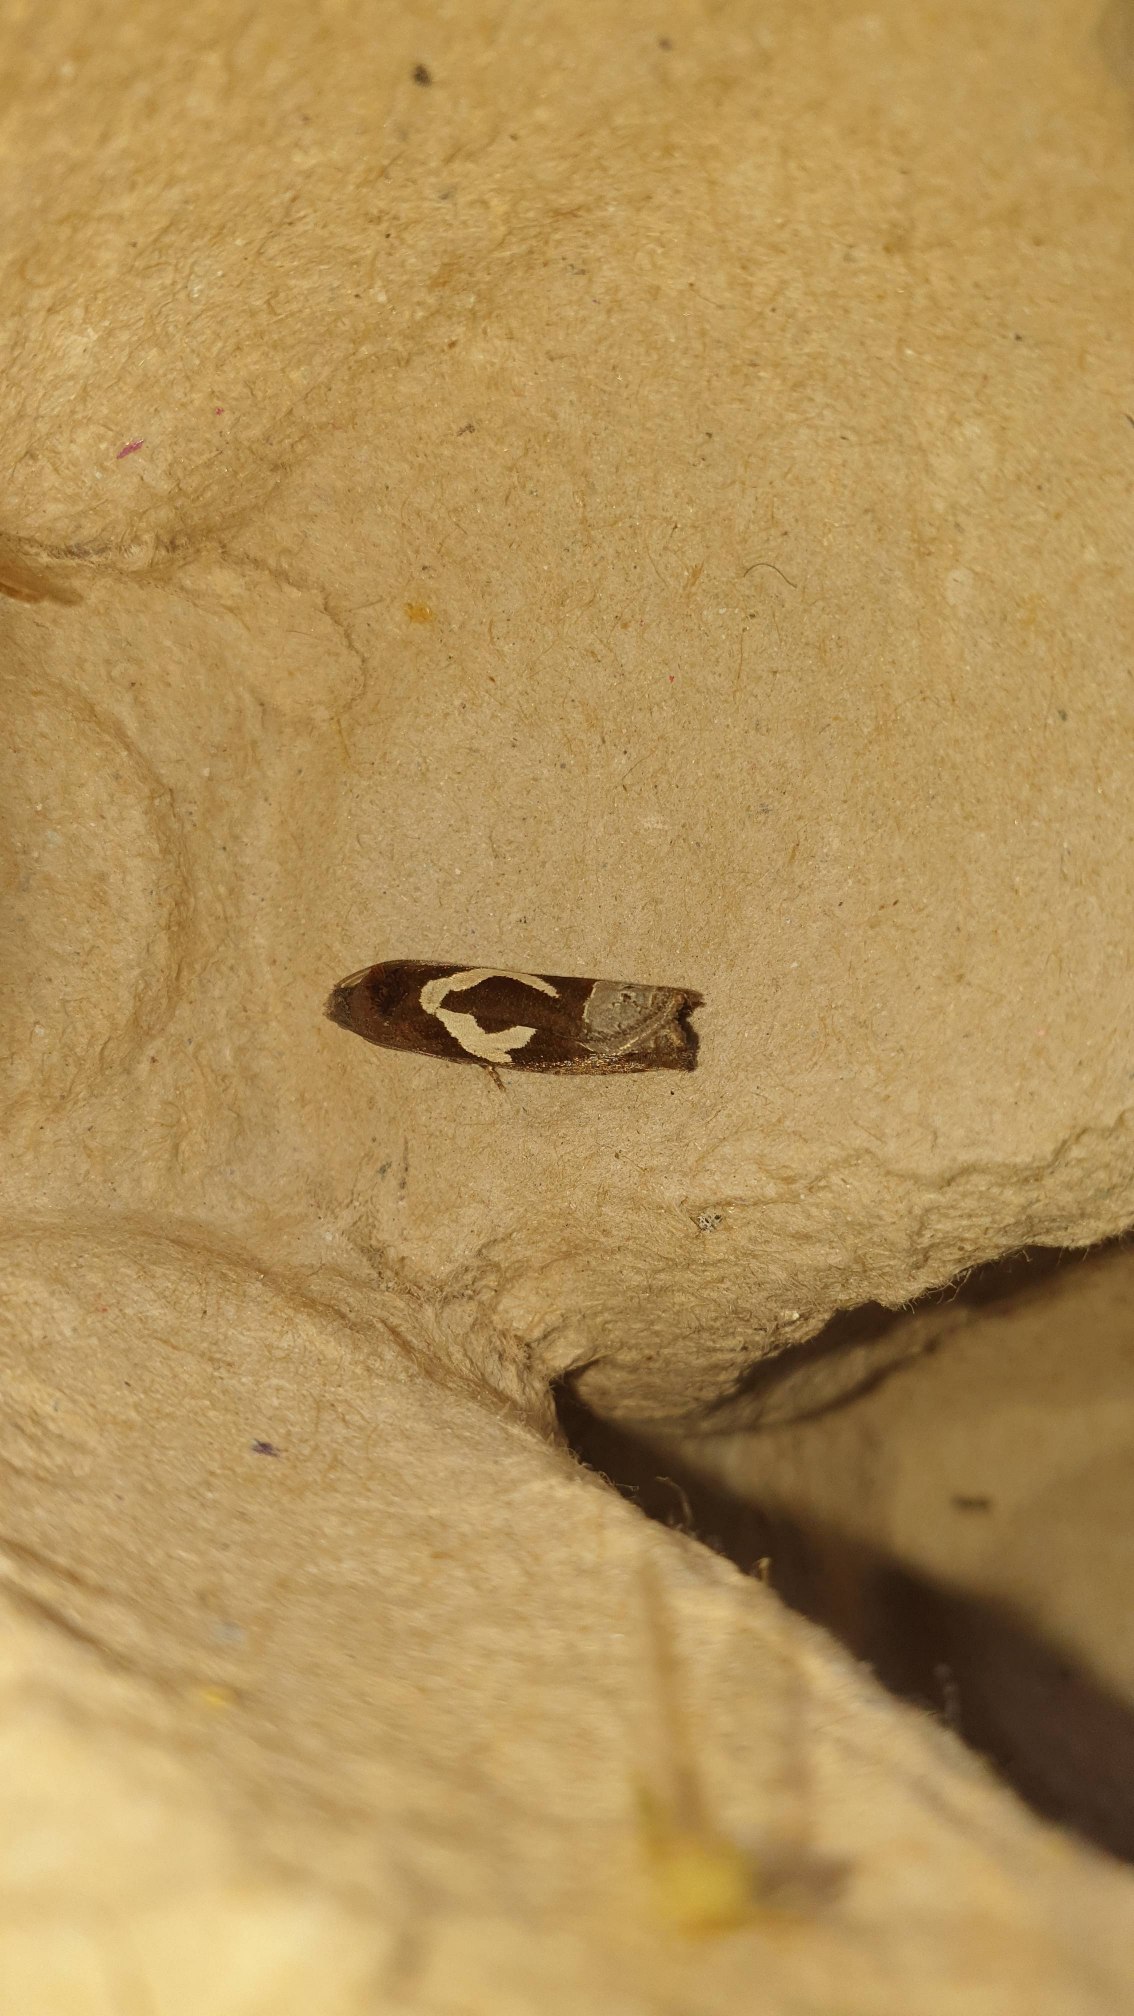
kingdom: Animalia
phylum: Arthropoda
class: Insecta
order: Lepidoptera
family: Tortricidae
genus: Epiblema
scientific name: Epiblema foenella
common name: Gråbynkegallevikler
